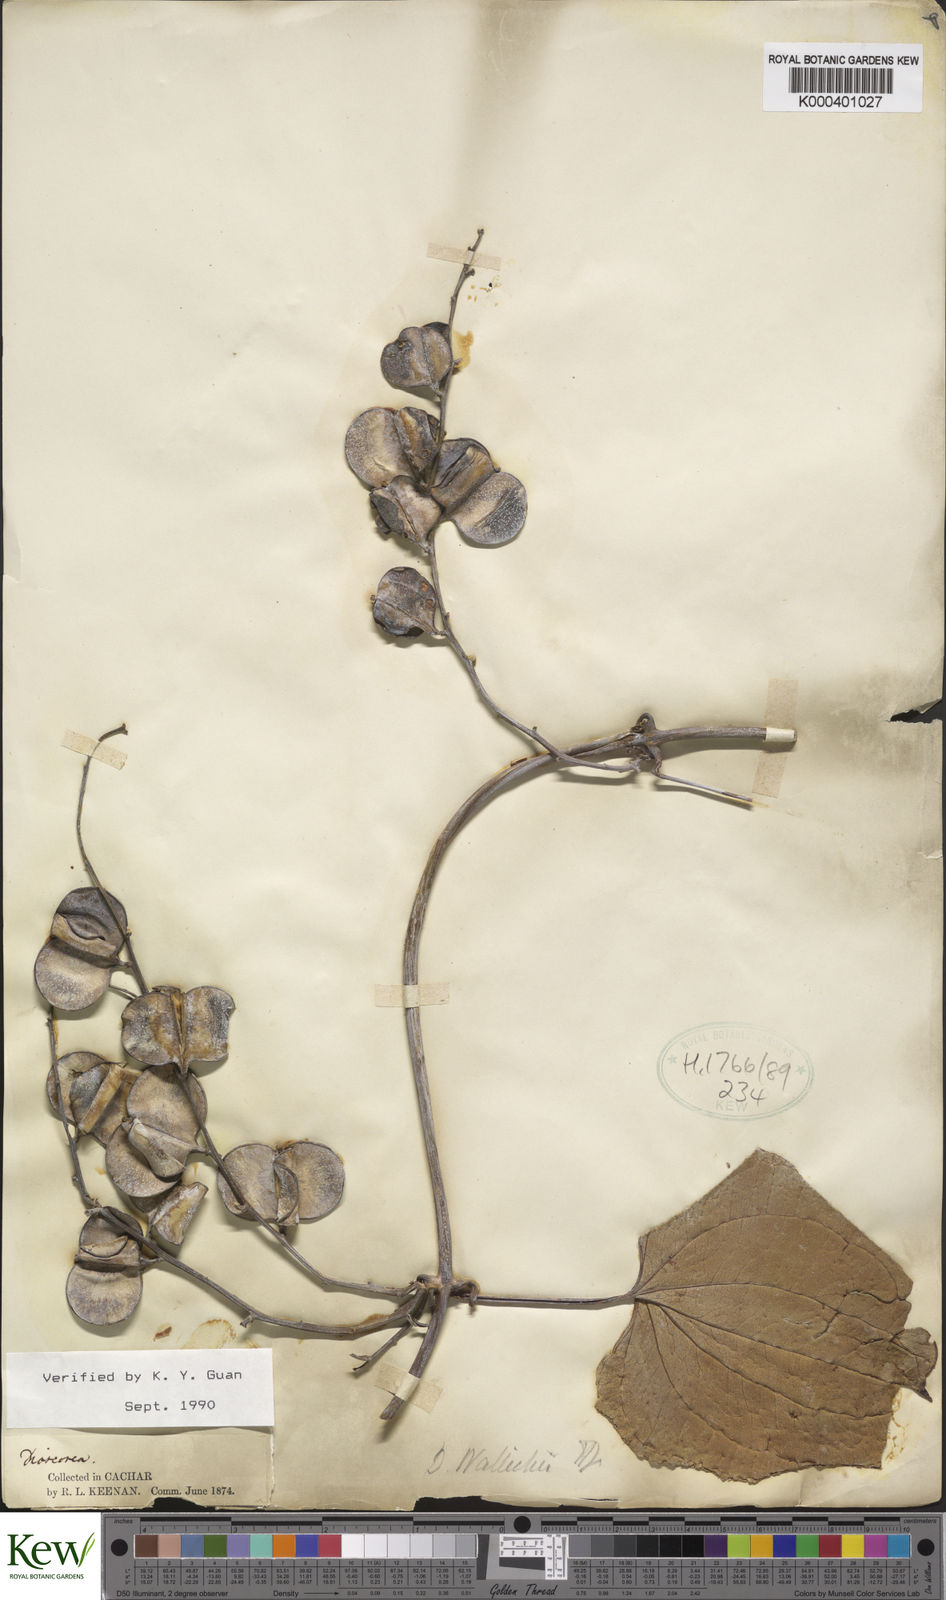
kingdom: Plantae
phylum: Tracheophyta
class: Liliopsida
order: Dioscoreales
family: Dioscoreaceae
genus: Dioscorea
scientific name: Dioscorea wallichii
